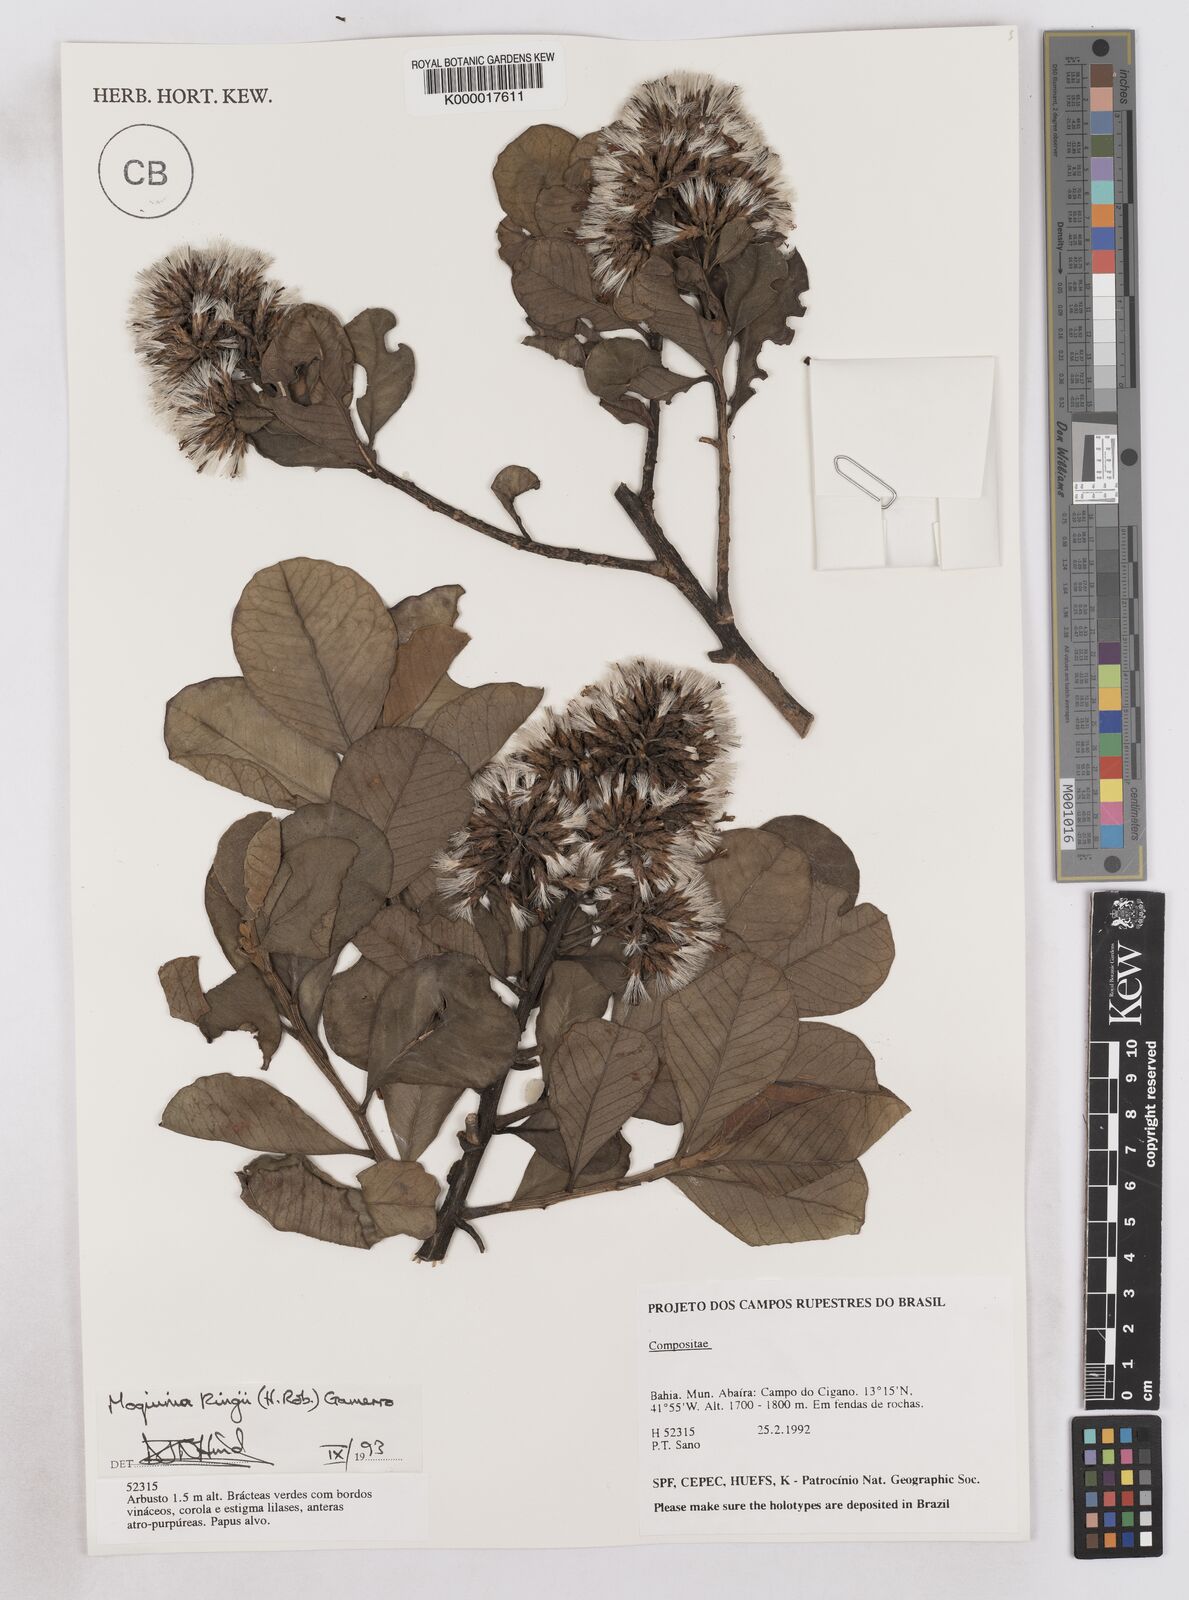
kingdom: Plantae
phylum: Tracheophyta
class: Magnoliopsida
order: Asterales
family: Asteraceae
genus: Pseudostifftia
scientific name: Pseudostifftia kingii
